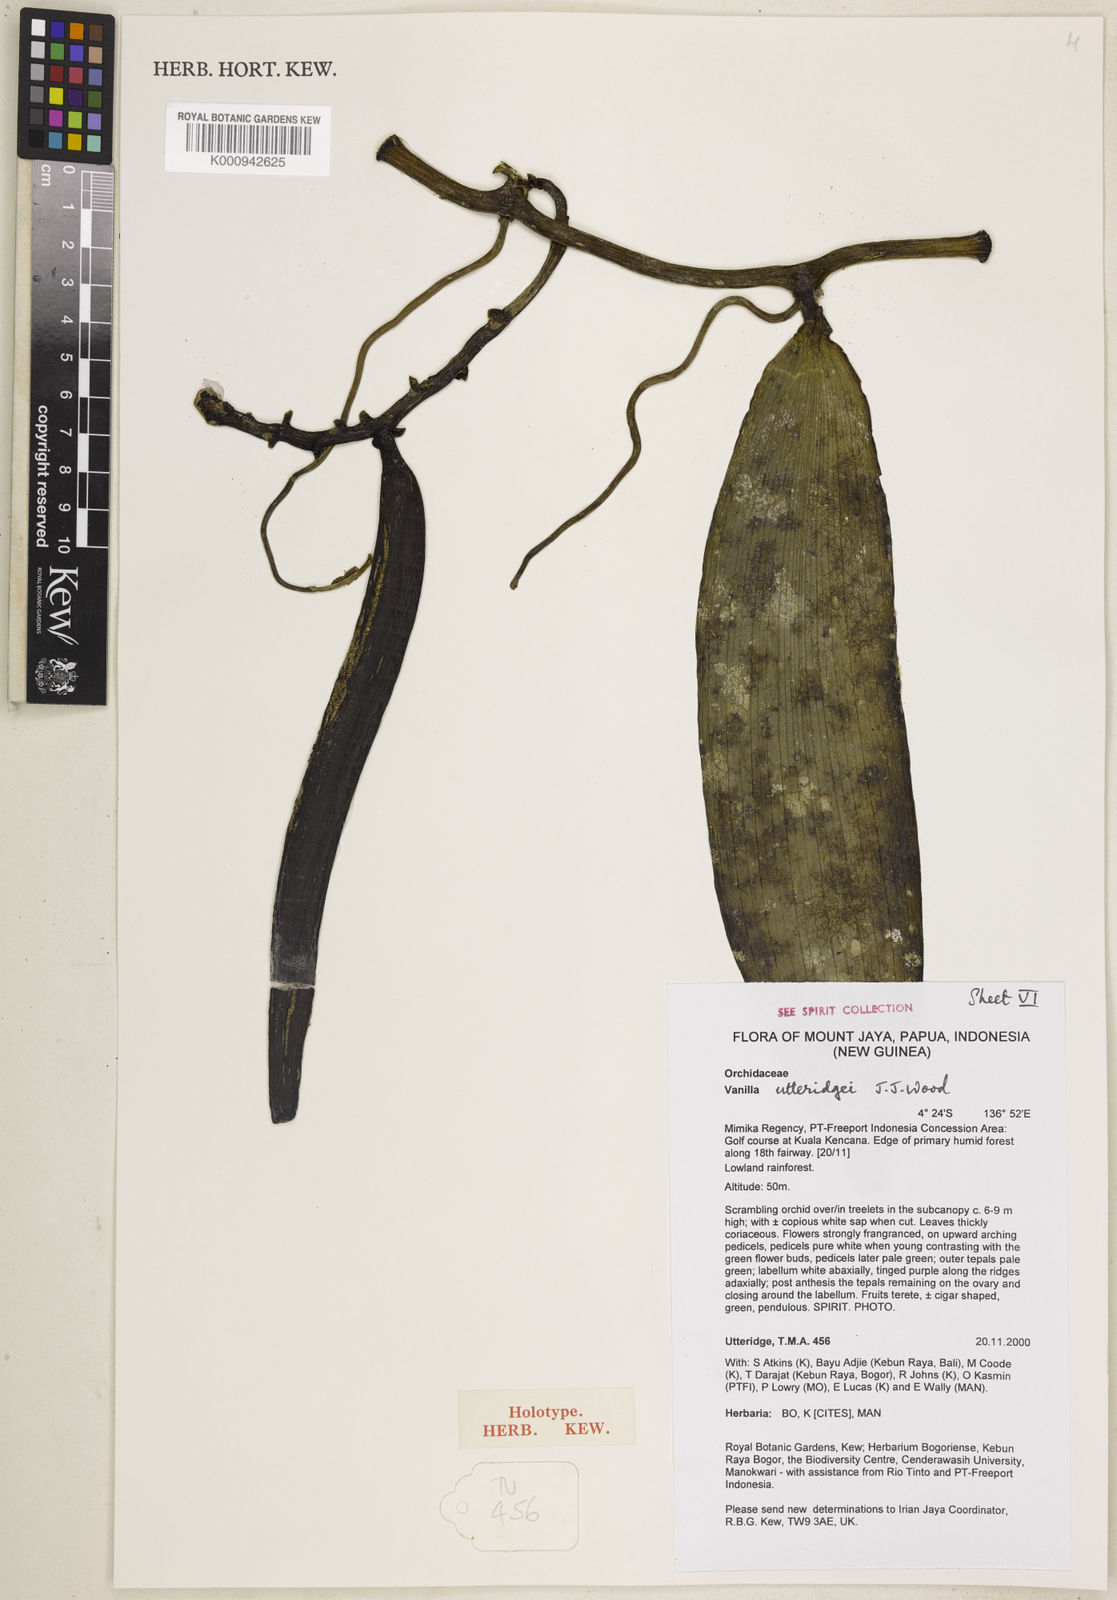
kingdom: Plantae
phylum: Tracheophyta
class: Liliopsida
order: Asparagales
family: Orchidaceae
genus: Vanilla
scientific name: Vanilla utteridgei
